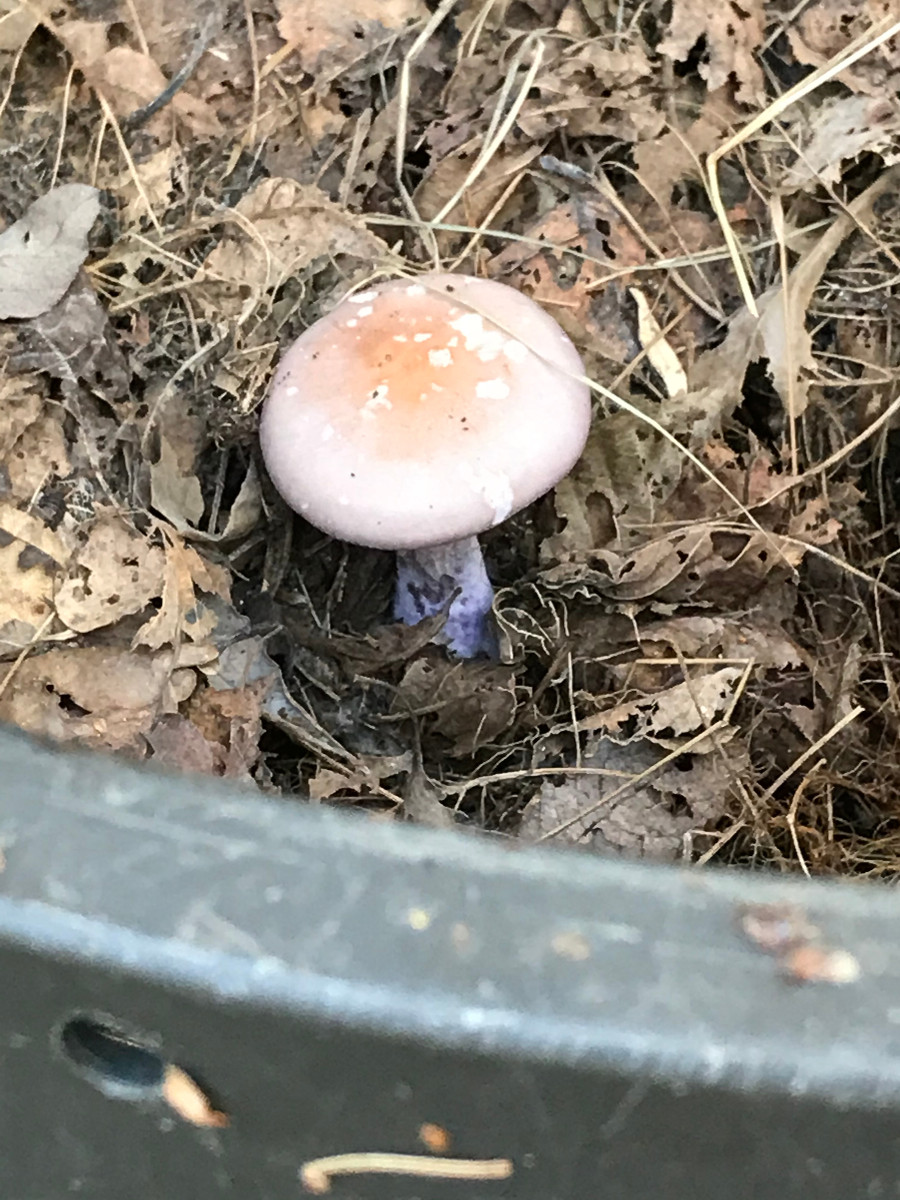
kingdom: Fungi
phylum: Basidiomycota
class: Agaricomycetes
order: Agaricales
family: Tricholomataceae
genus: Lepista
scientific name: Lepista nuda
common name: violet hekseringshat
